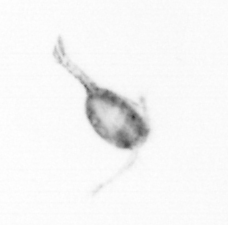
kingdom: Animalia
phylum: Arthropoda
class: Copepoda
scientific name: Copepoda
